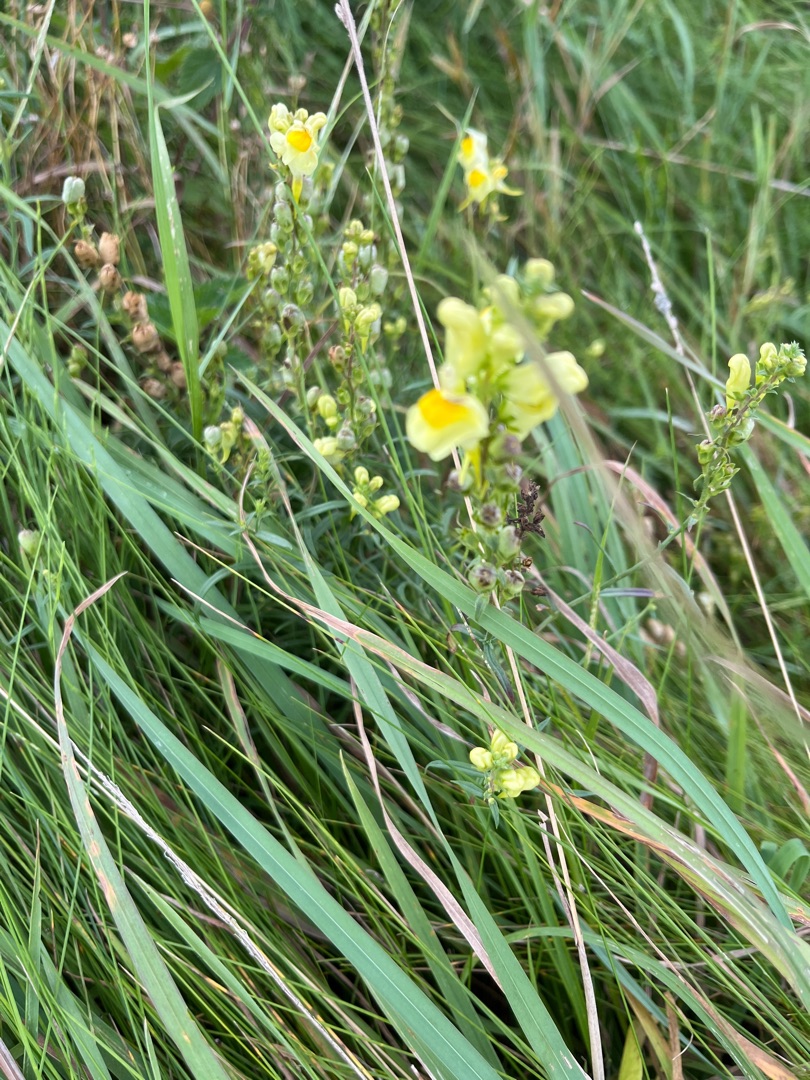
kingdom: Plantae
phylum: Tracheophyta
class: Magnoliopsida
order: Lamiales
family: Plantaginaceae
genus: Linaria
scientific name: Linaria vulgaris
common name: Almindelig torskemund
